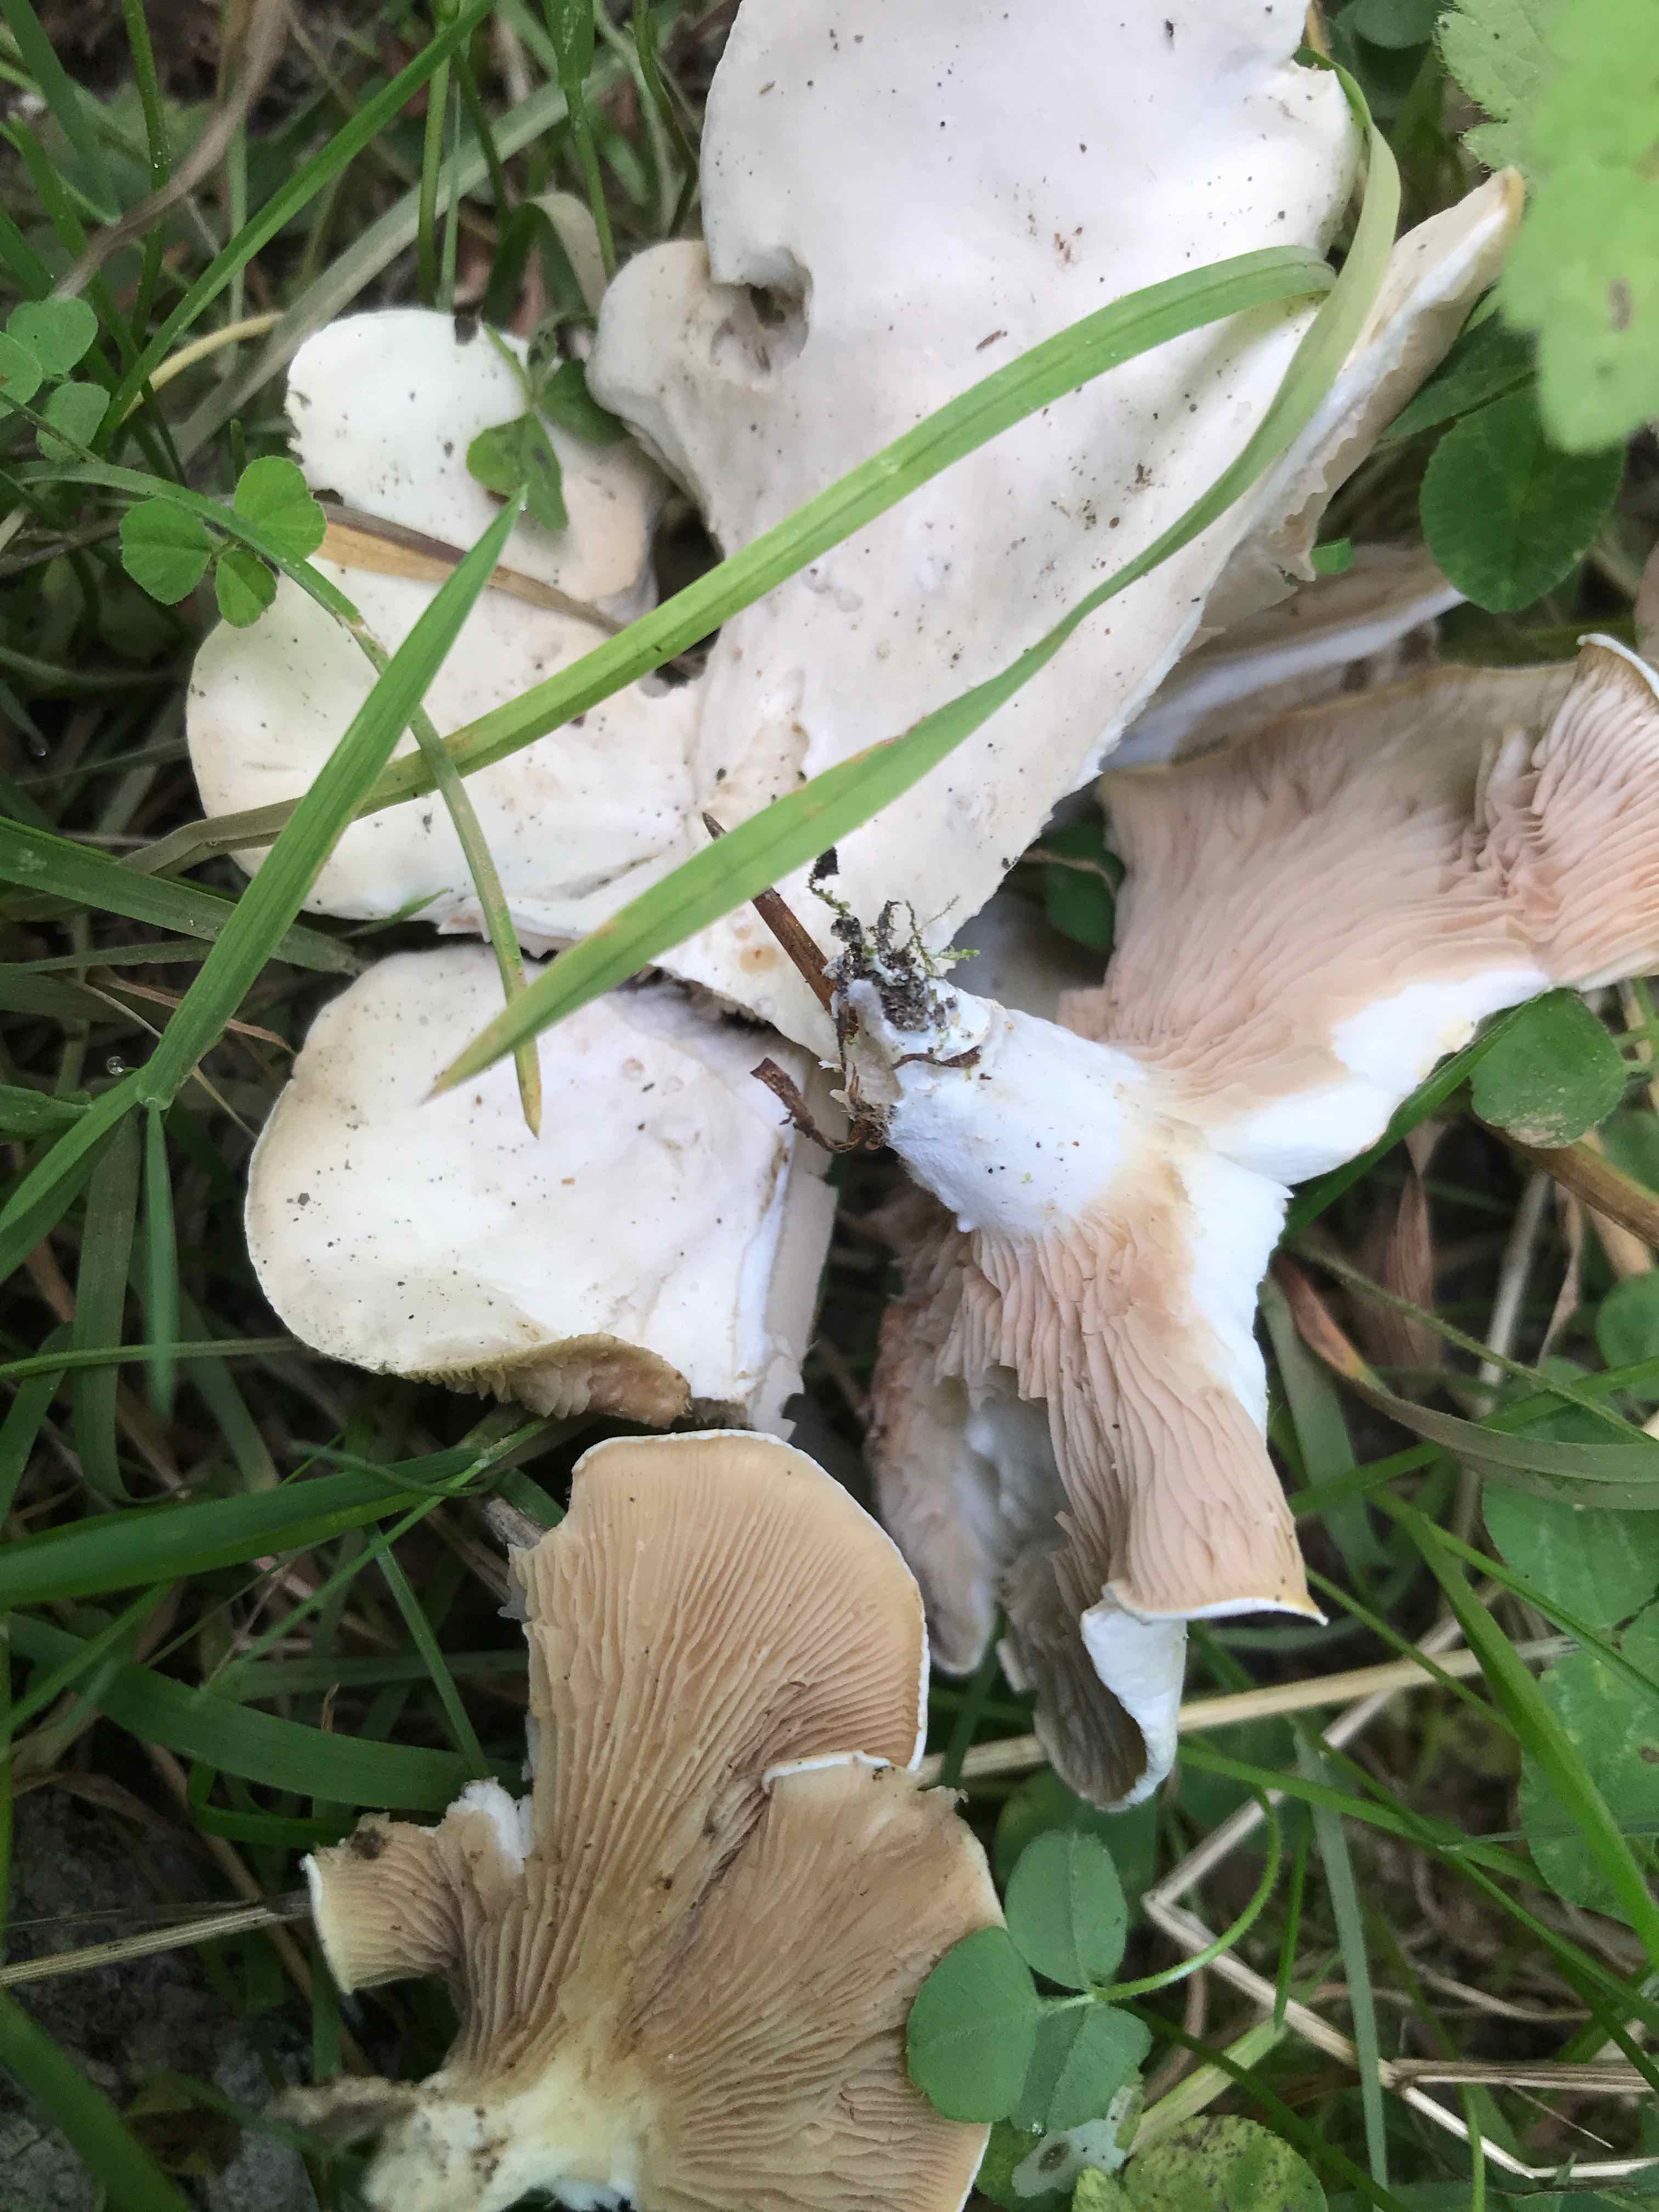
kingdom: Fungi
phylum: Basidiomycota
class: Agaricomycetes
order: Agaricales
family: Entolomataceae
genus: Clitopilus
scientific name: Clitopilus prunulus
